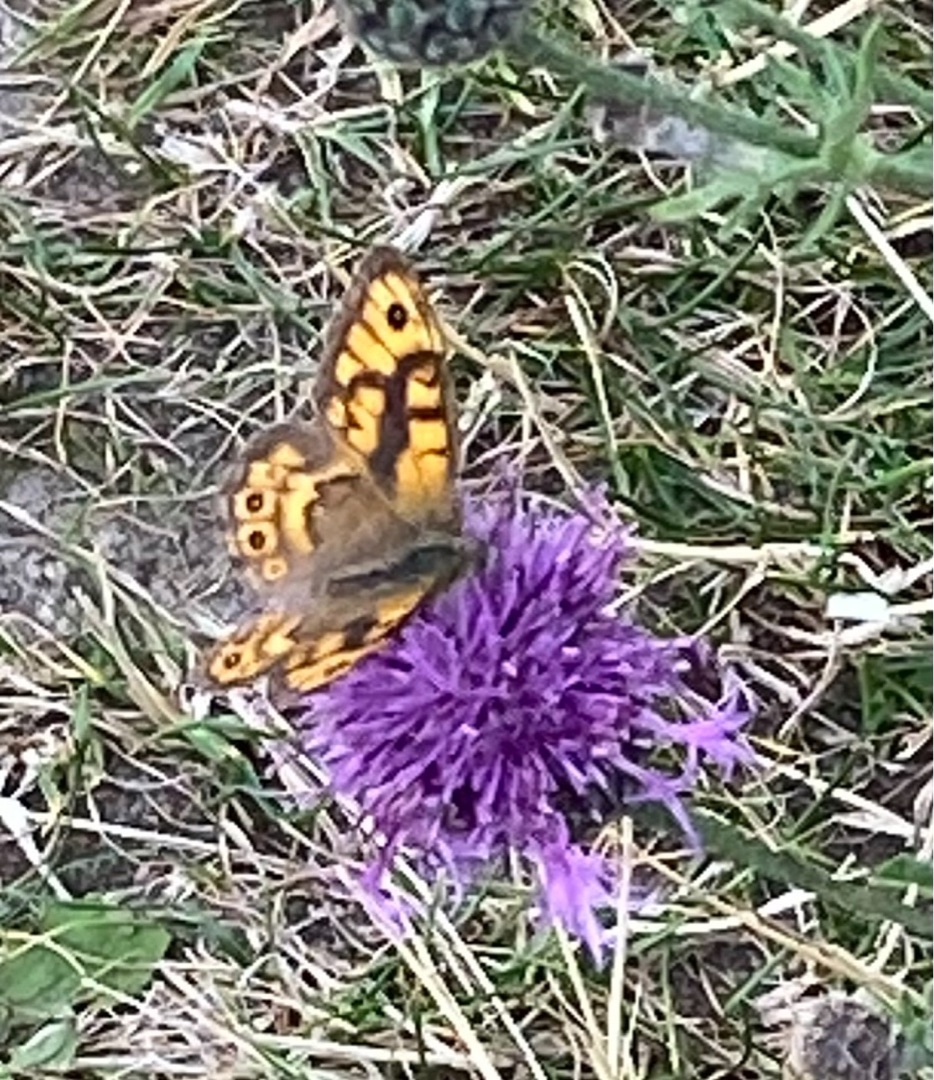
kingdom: Animalia
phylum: Arthropoda
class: Insecta
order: Lepidoptera
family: Nymphalidae
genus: Pararge
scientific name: Pararge Lasiommata megera
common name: Vejrandøje
